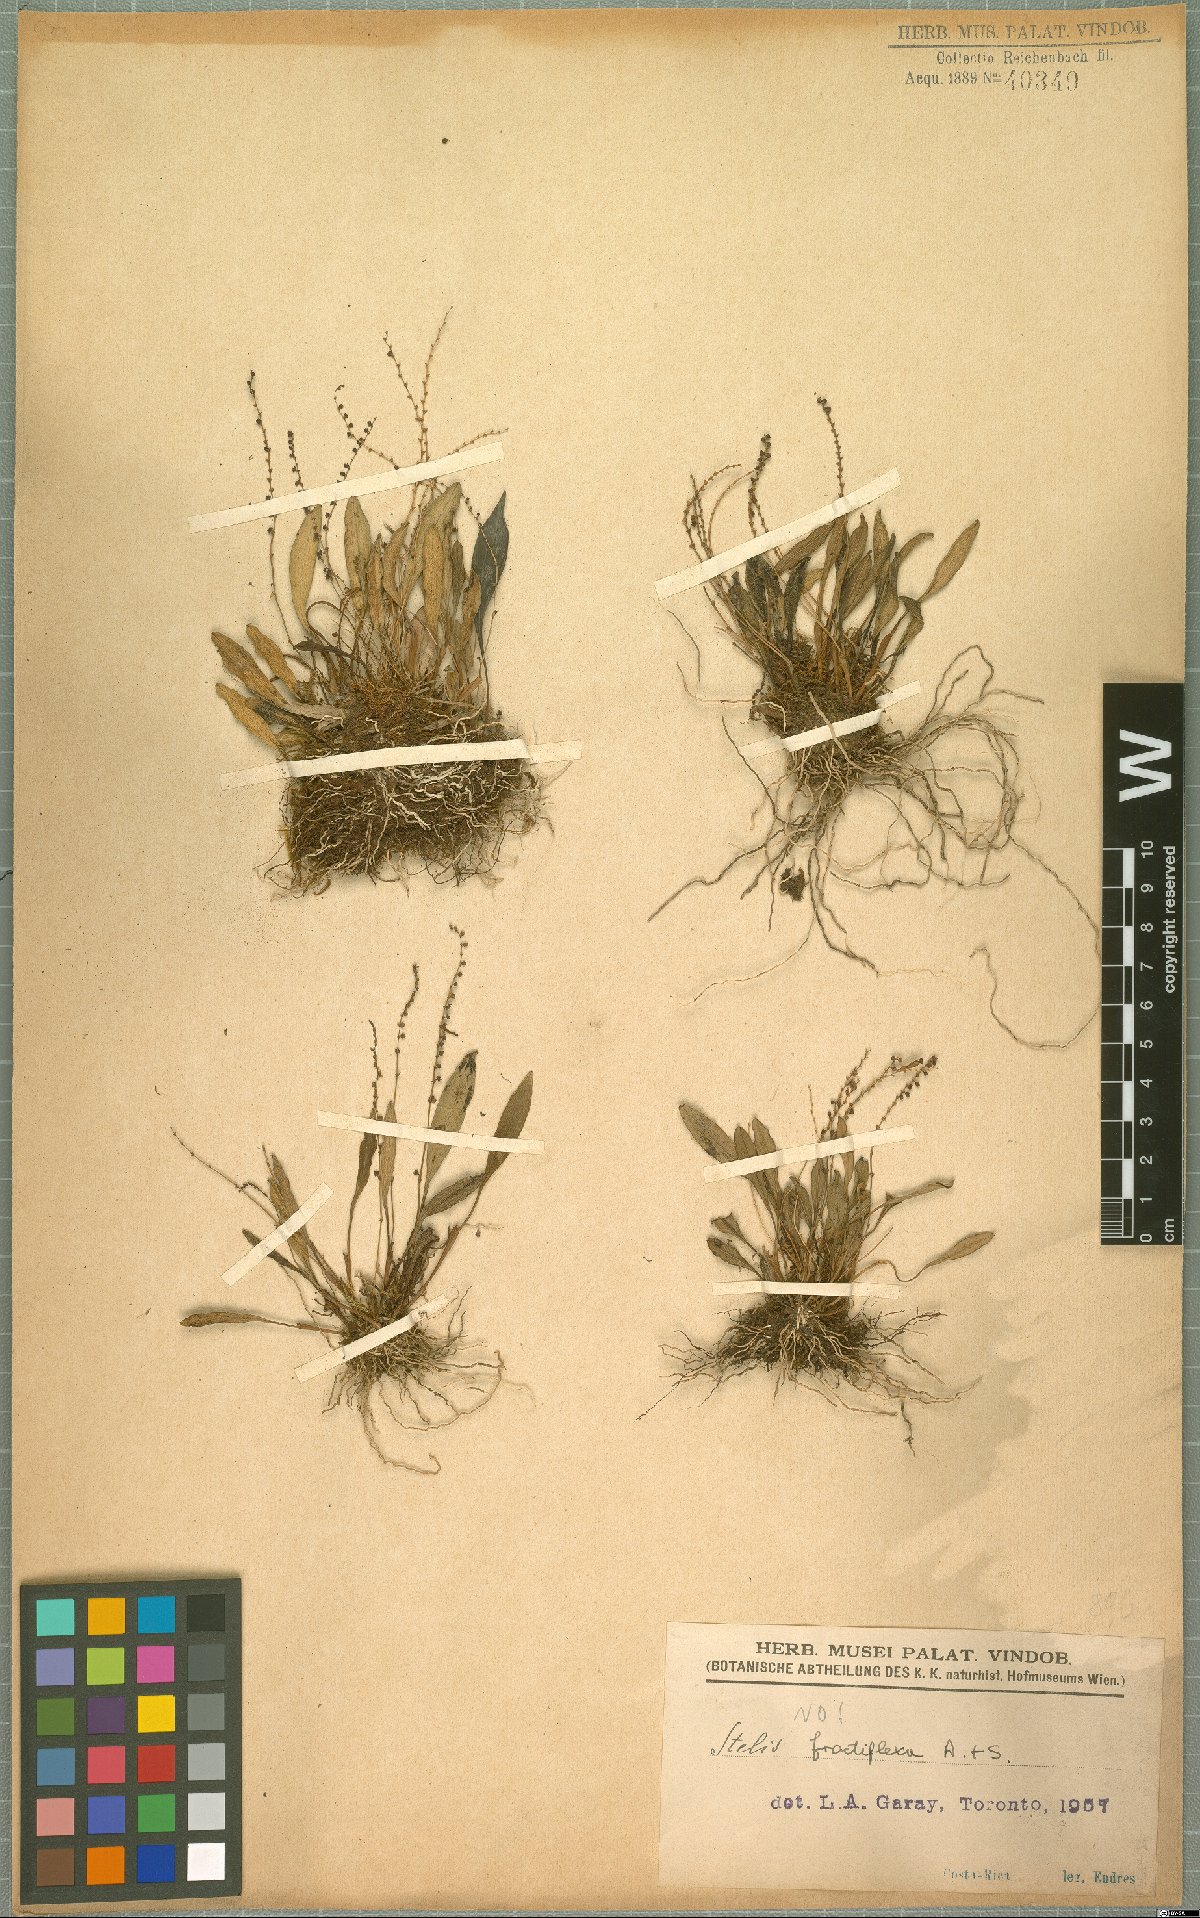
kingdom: Plantae
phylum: Tracheophyta
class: Liliopsida
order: Asparagales
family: Orchidaceae
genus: Stelis
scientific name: Stelis fractiflexa
